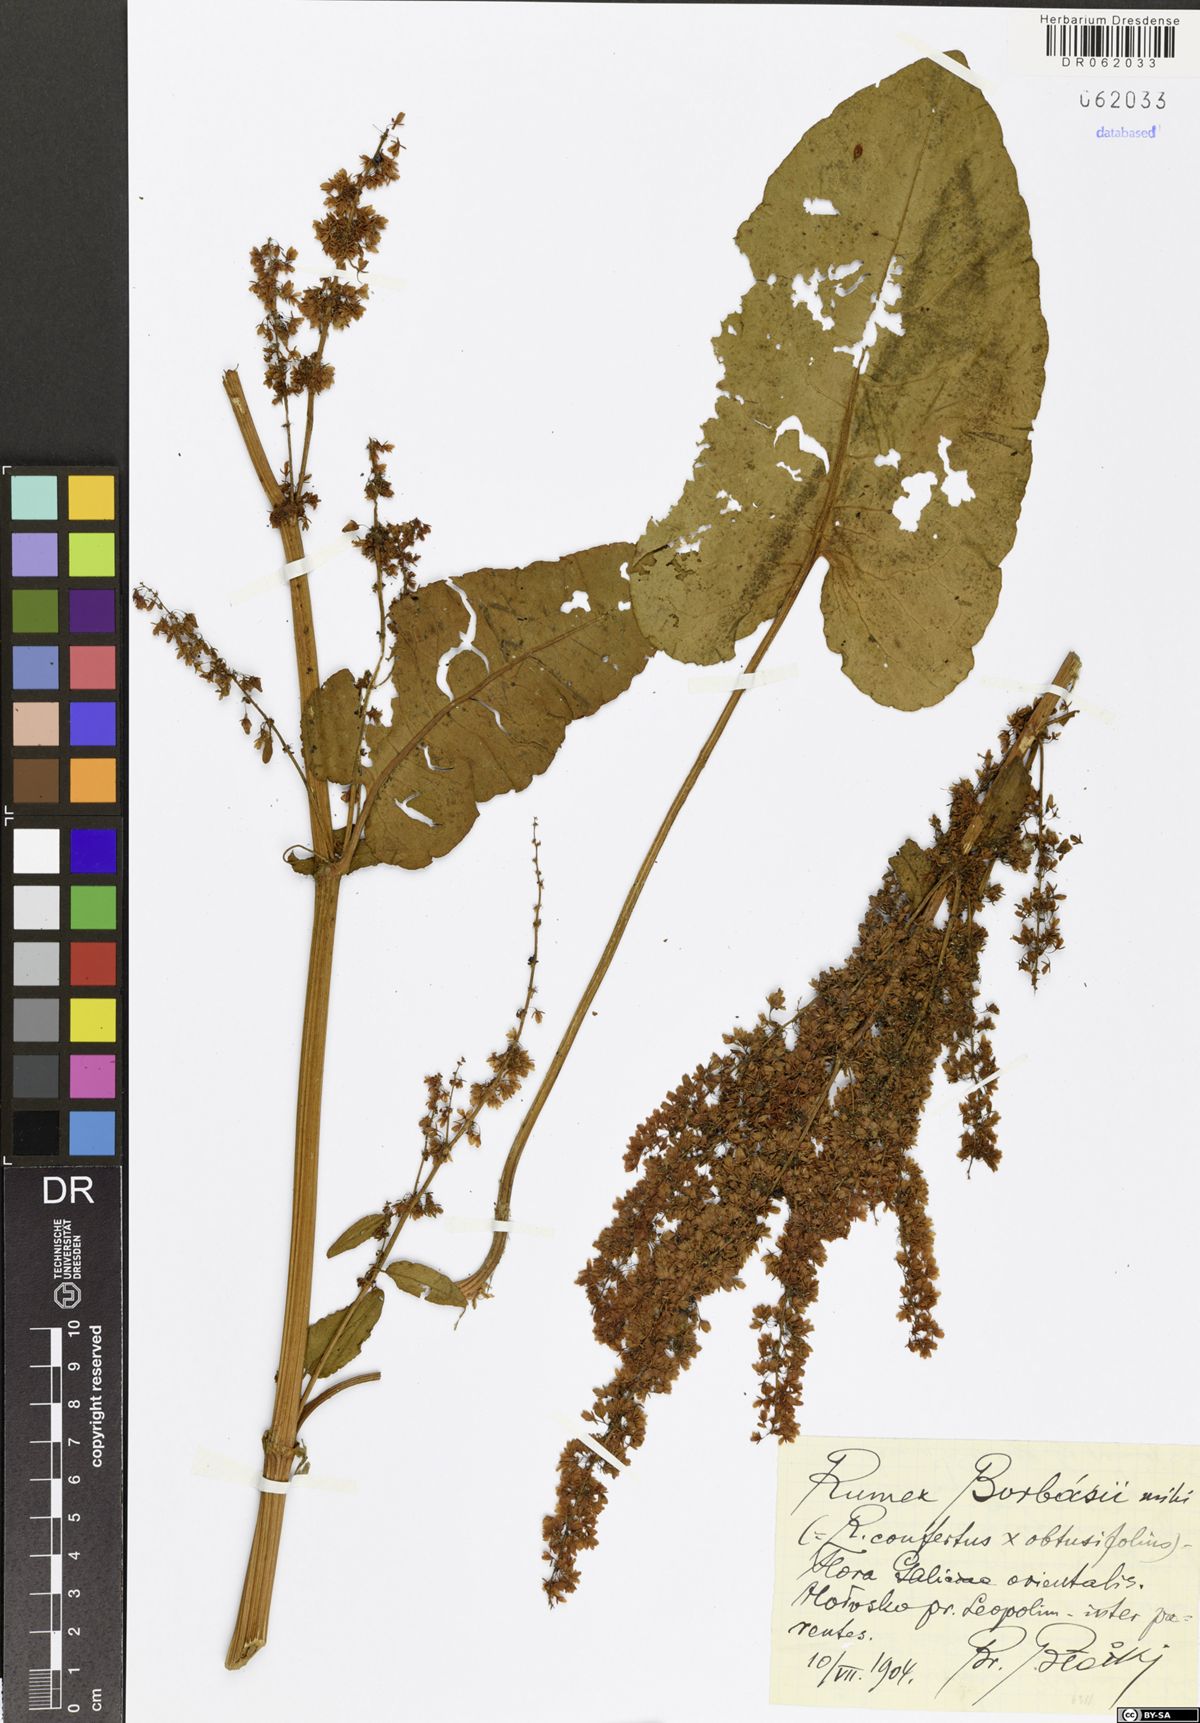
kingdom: Plantae
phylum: Tracheophyta
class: Magnoliopsida
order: Caryophyllales
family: Polygonaceae
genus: Rumex
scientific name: Rumex borbasii
